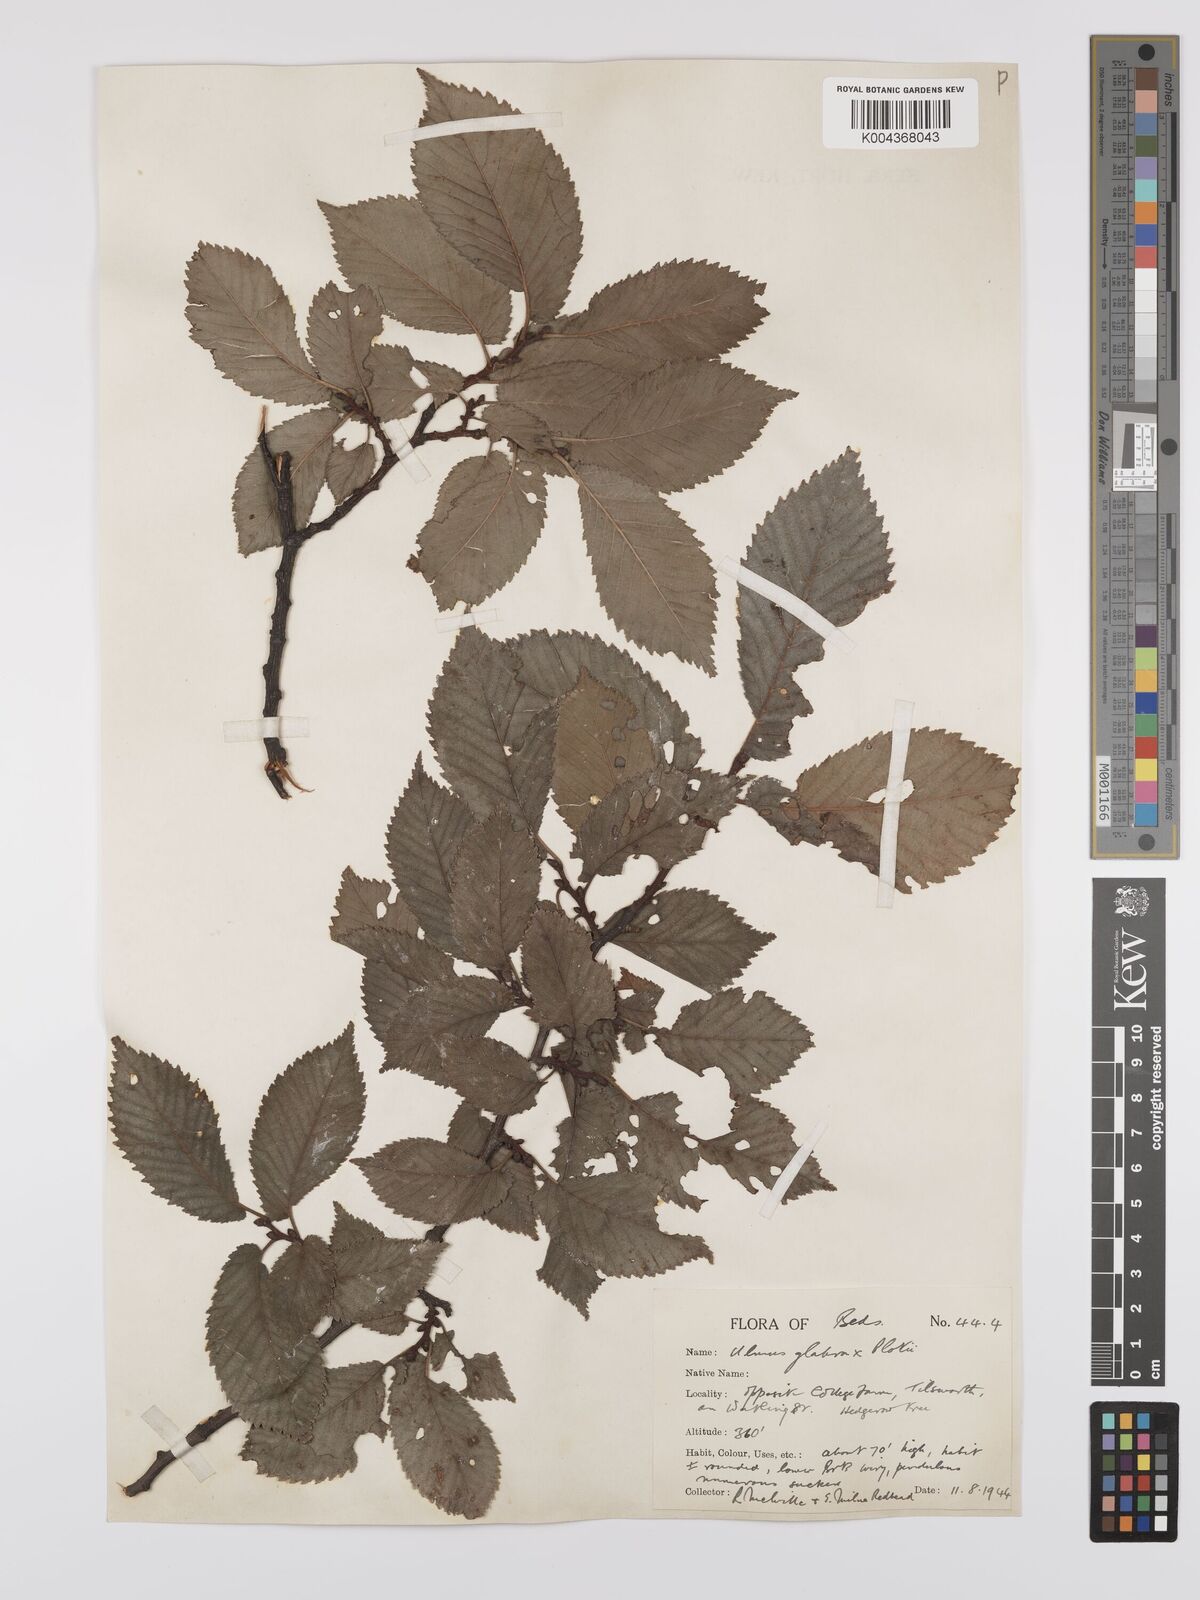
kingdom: Plantae
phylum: Tracheophyta
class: Magnoliopsida
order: Rosales
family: Ulmaceae
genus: Ulmus
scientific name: Ulmus
